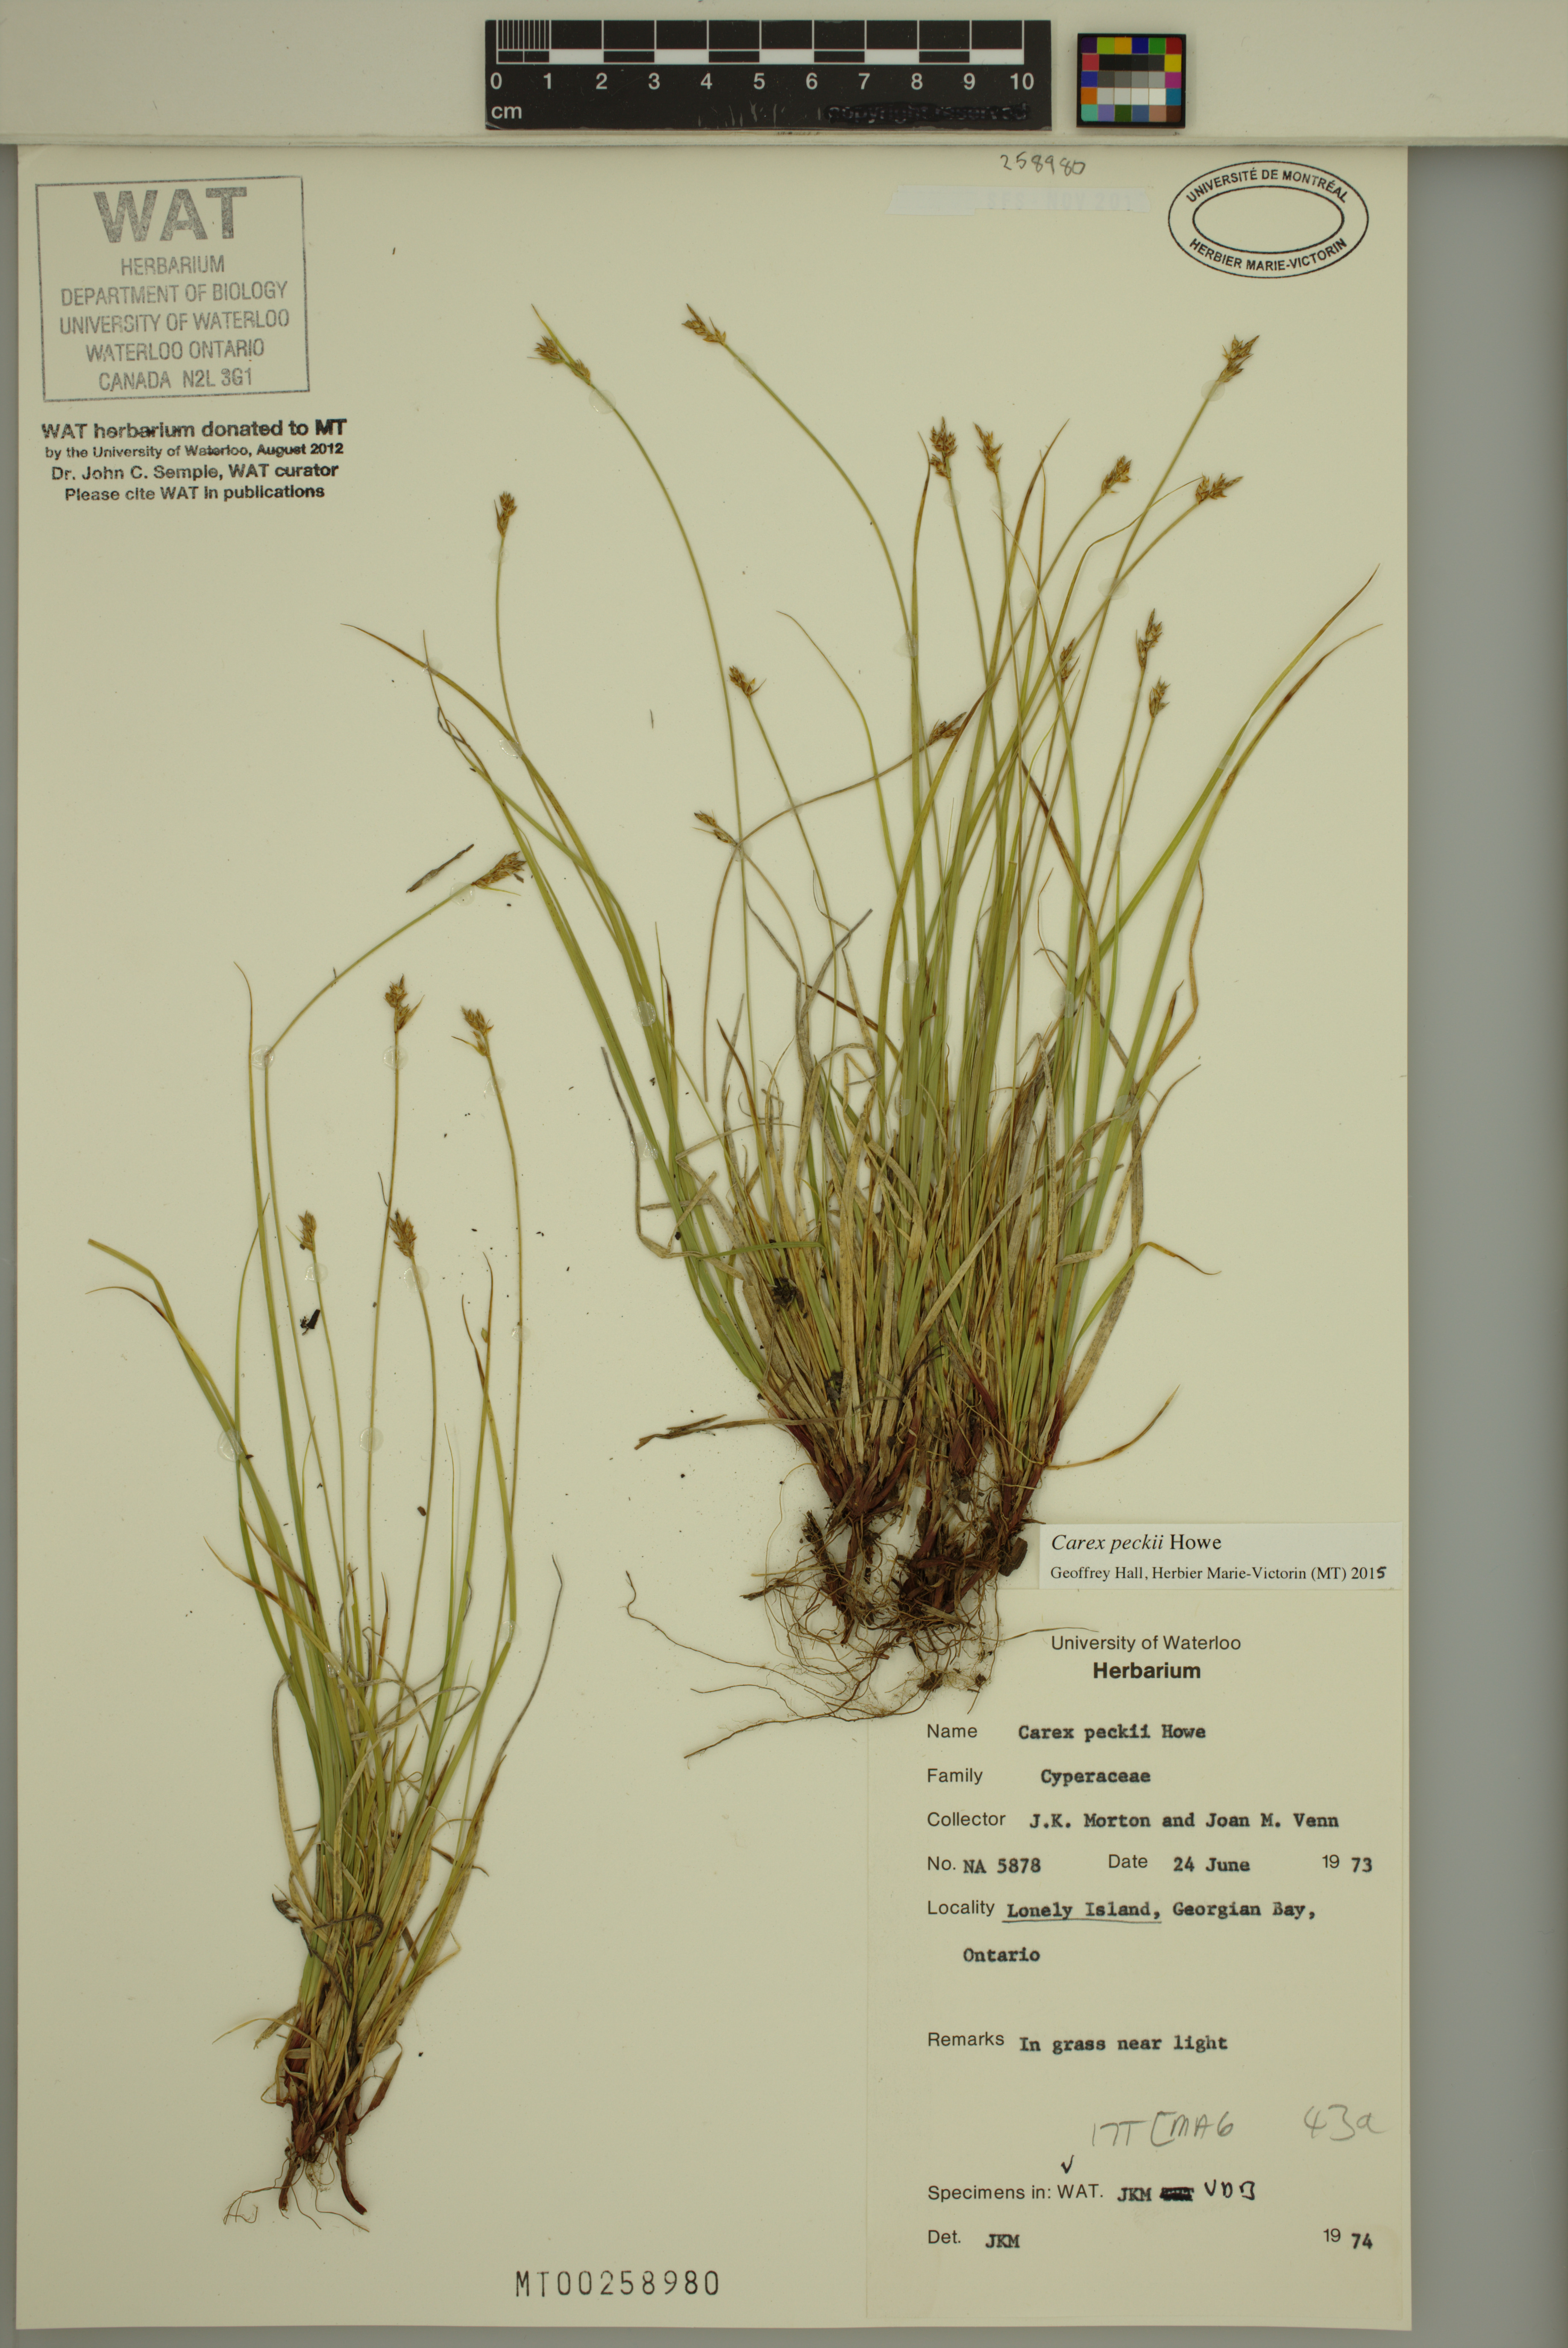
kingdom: Plantae
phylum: Tracheophyta
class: Liliopsida
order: Poales
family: Cyperaceae
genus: Carex
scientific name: Carex peckii
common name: Peck's oak sedge
